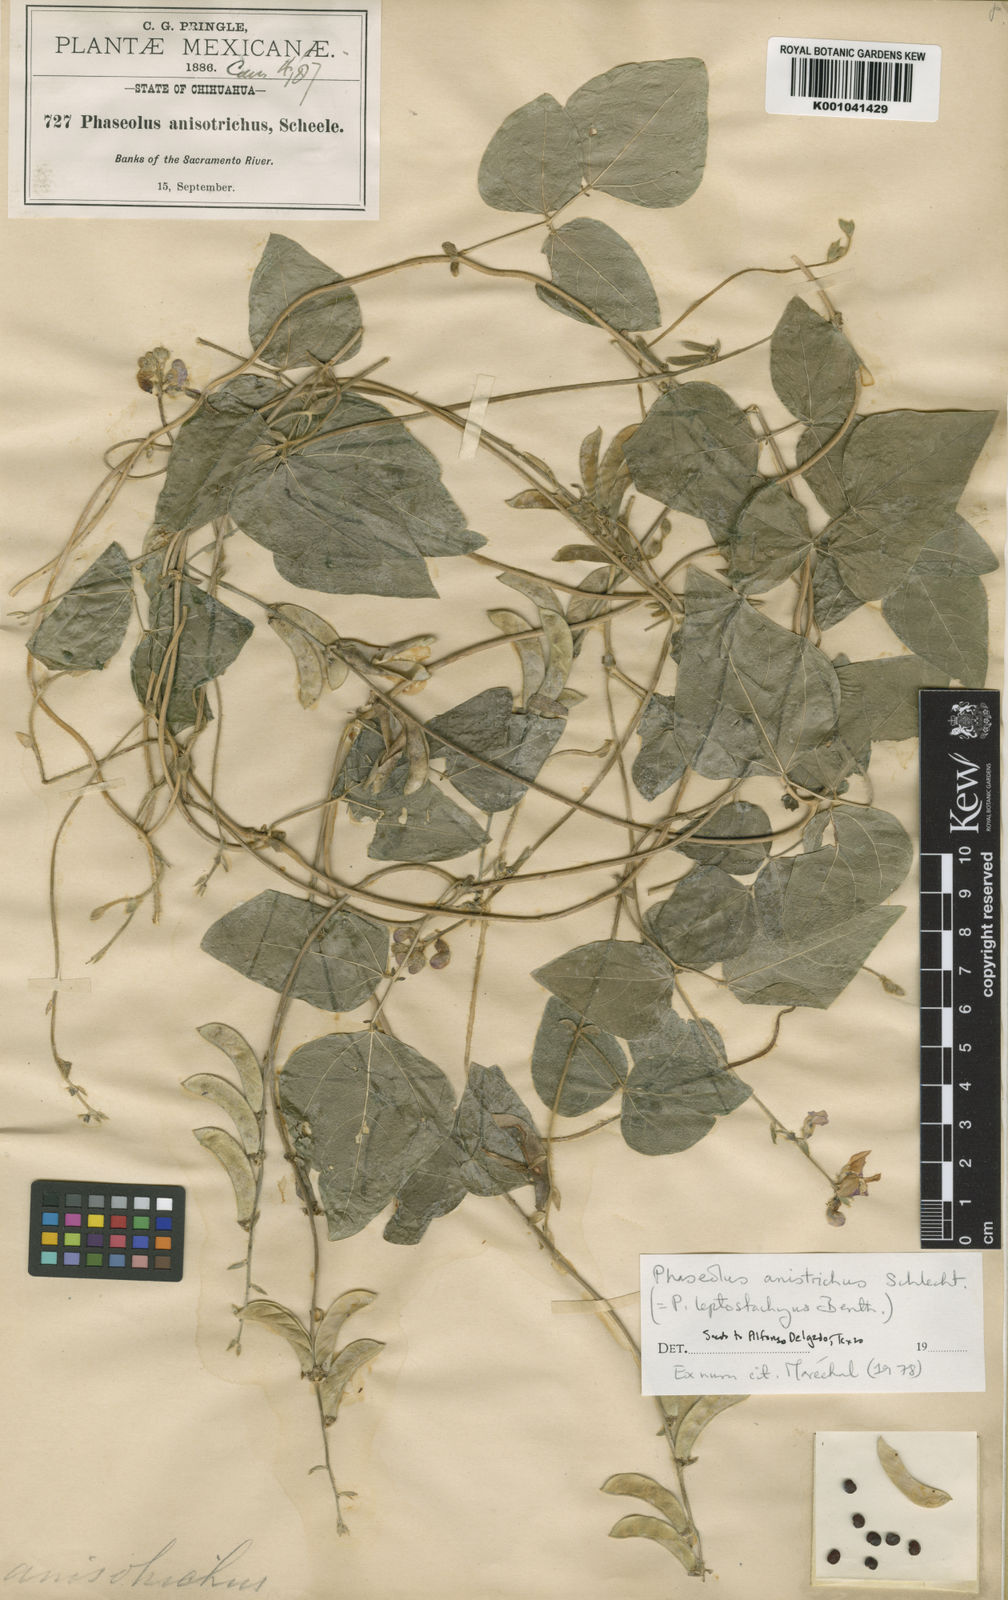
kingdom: Plantae
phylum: Tracheophyta
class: Magnoliopsida
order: Fabales
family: Fabaceae
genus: Phaseolus
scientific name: Phaseolus
